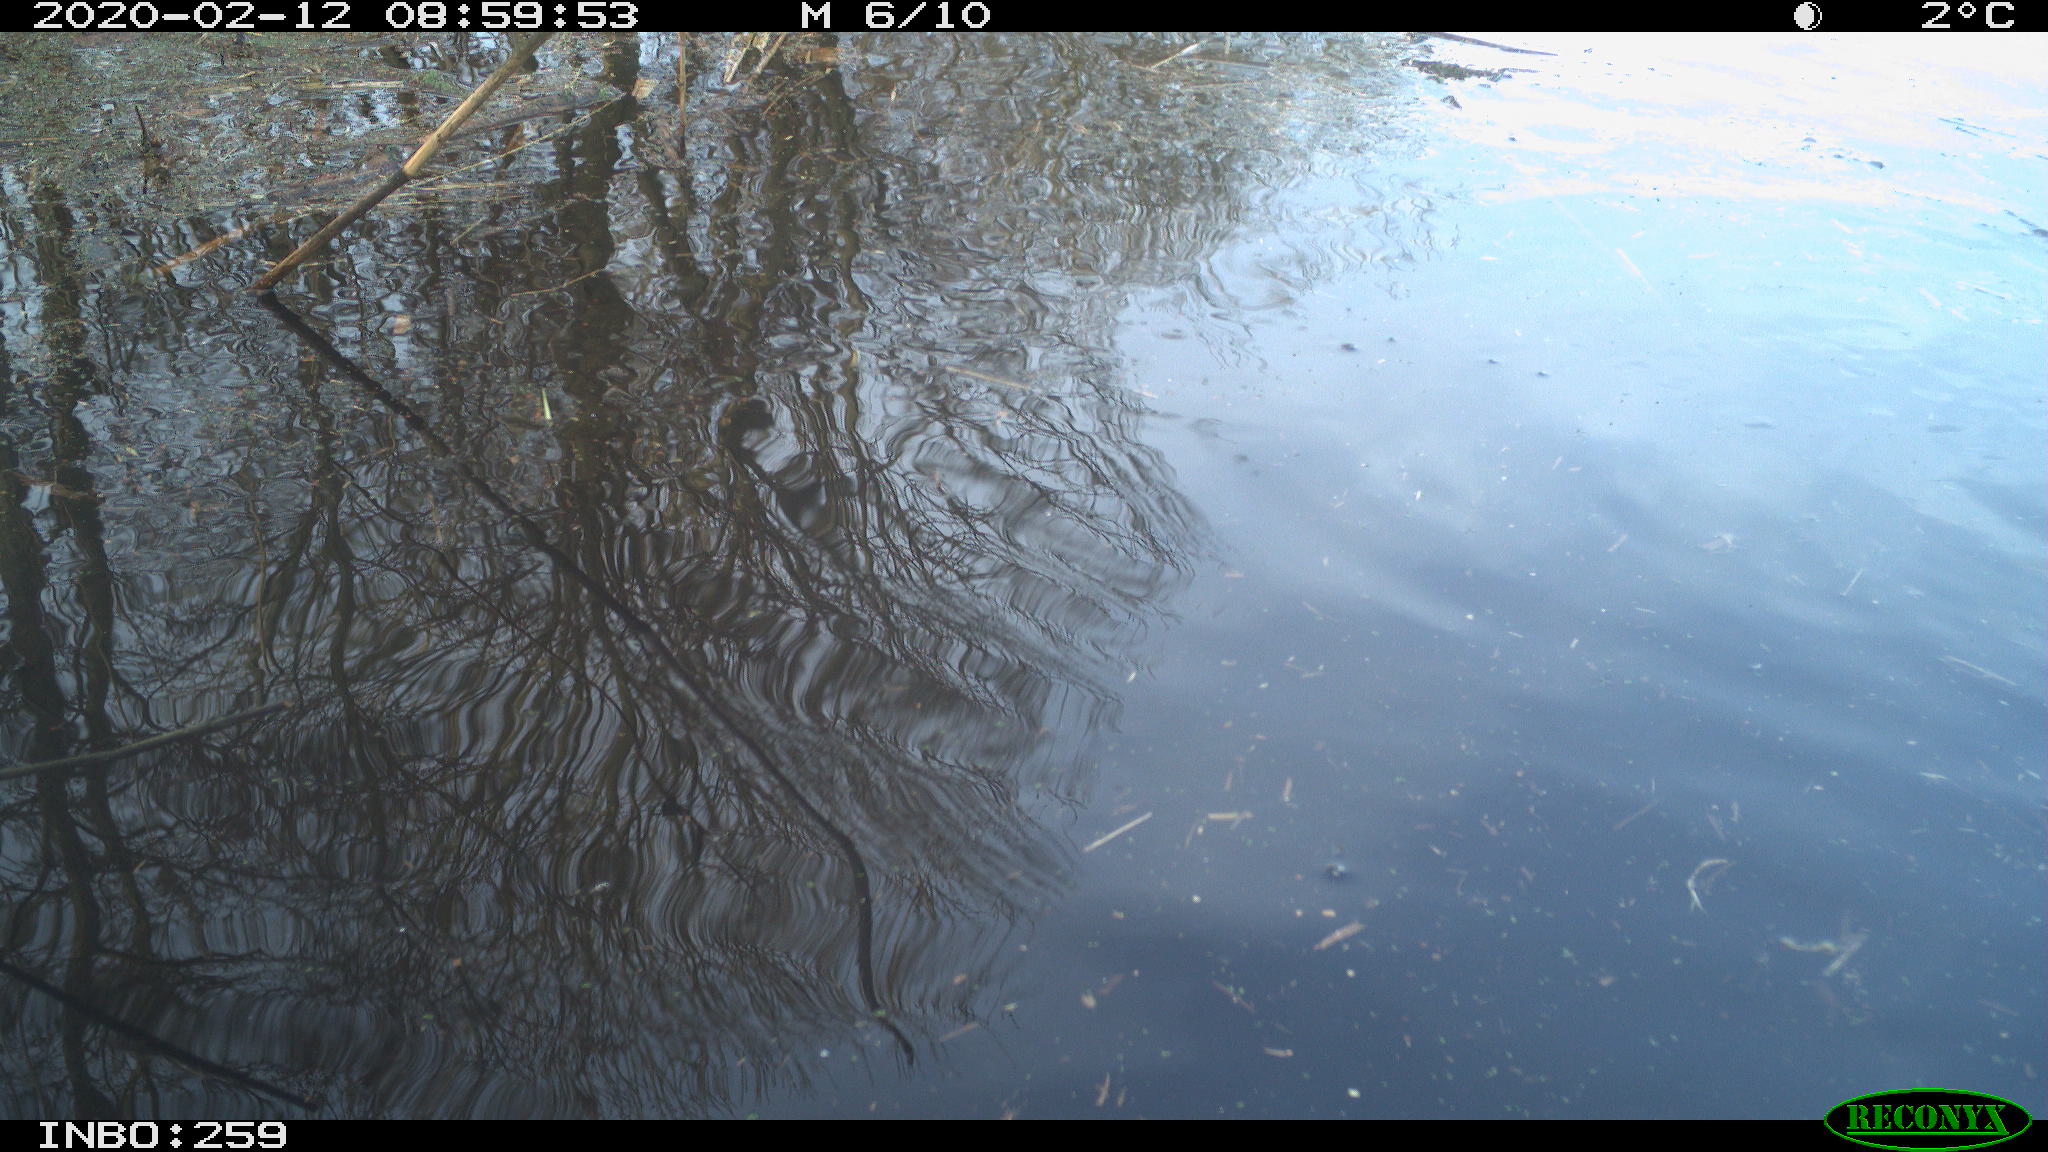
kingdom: Animalia
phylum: Chordata
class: Aves
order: Anseriformes
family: Anatidae
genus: Anas
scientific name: Anas platyrhynchos
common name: Mallard
